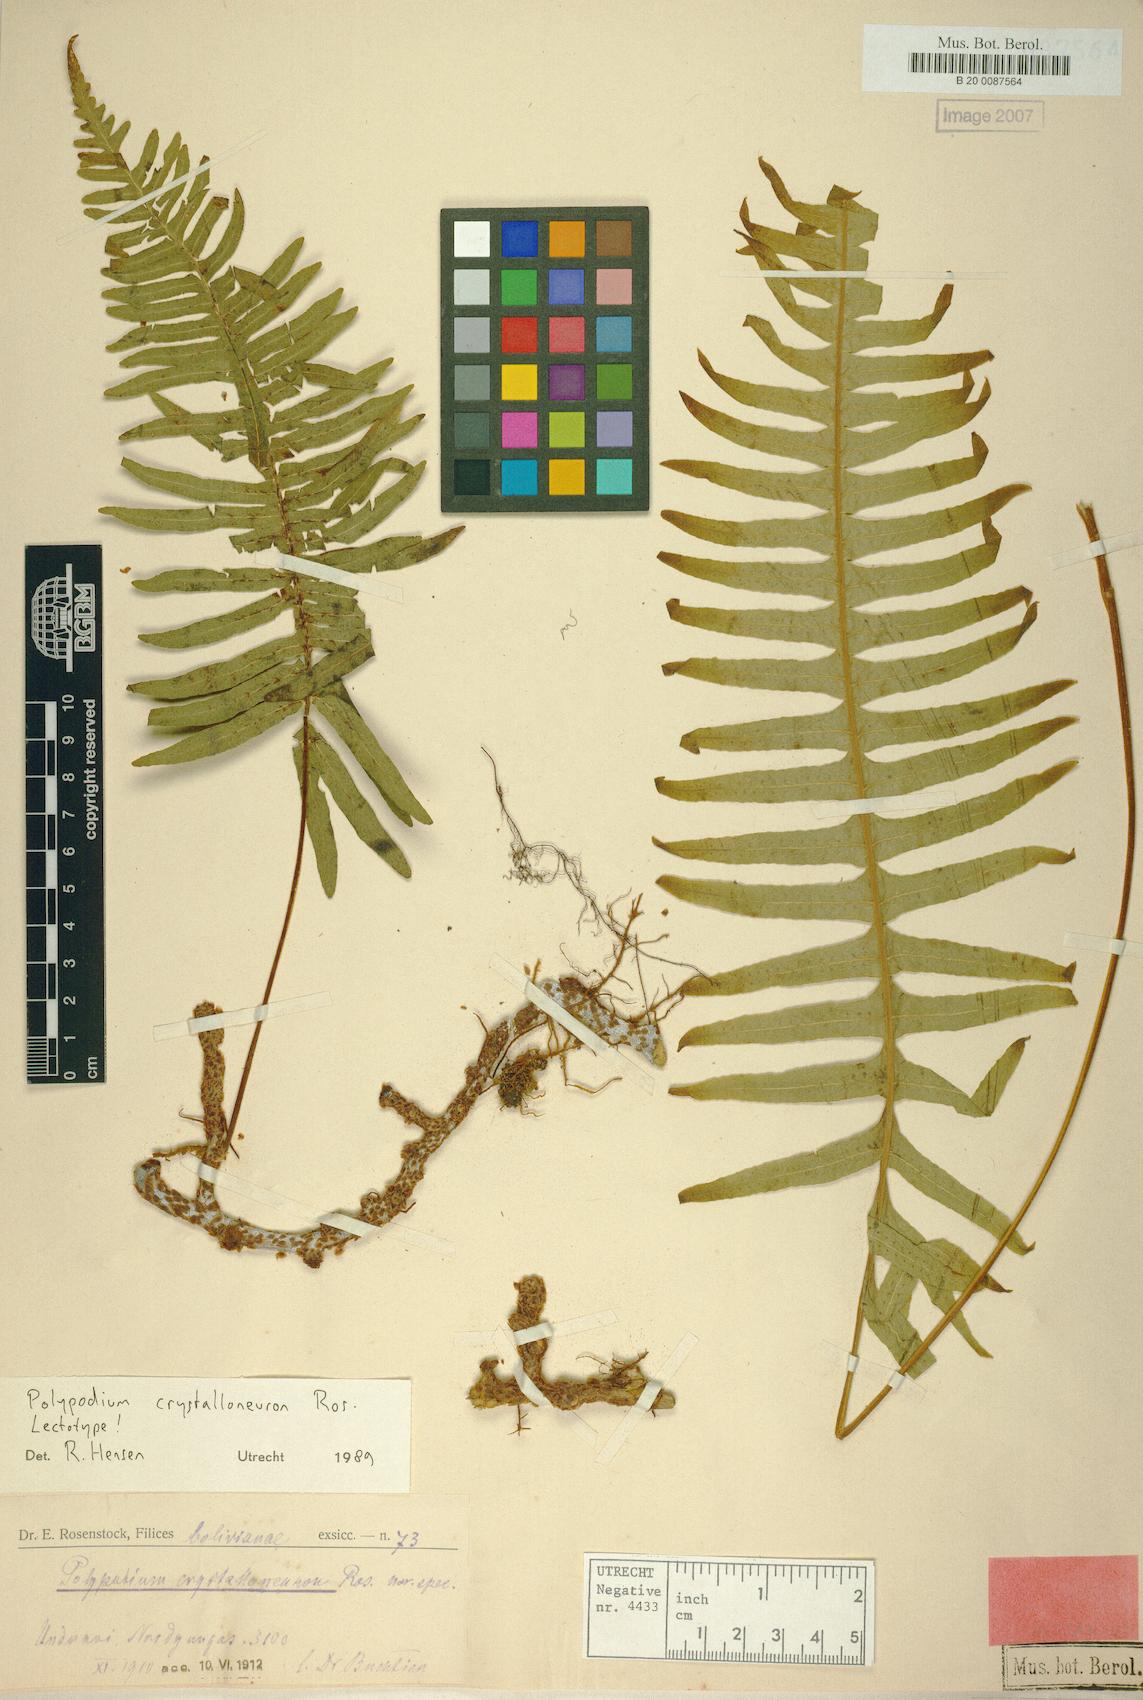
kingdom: Plantae
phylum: Tracheophyta
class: Polypodiopsida
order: Polypodiales
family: Polypodiaceae
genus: Serpocaulon
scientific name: Serpocaulon crystalloneuron
